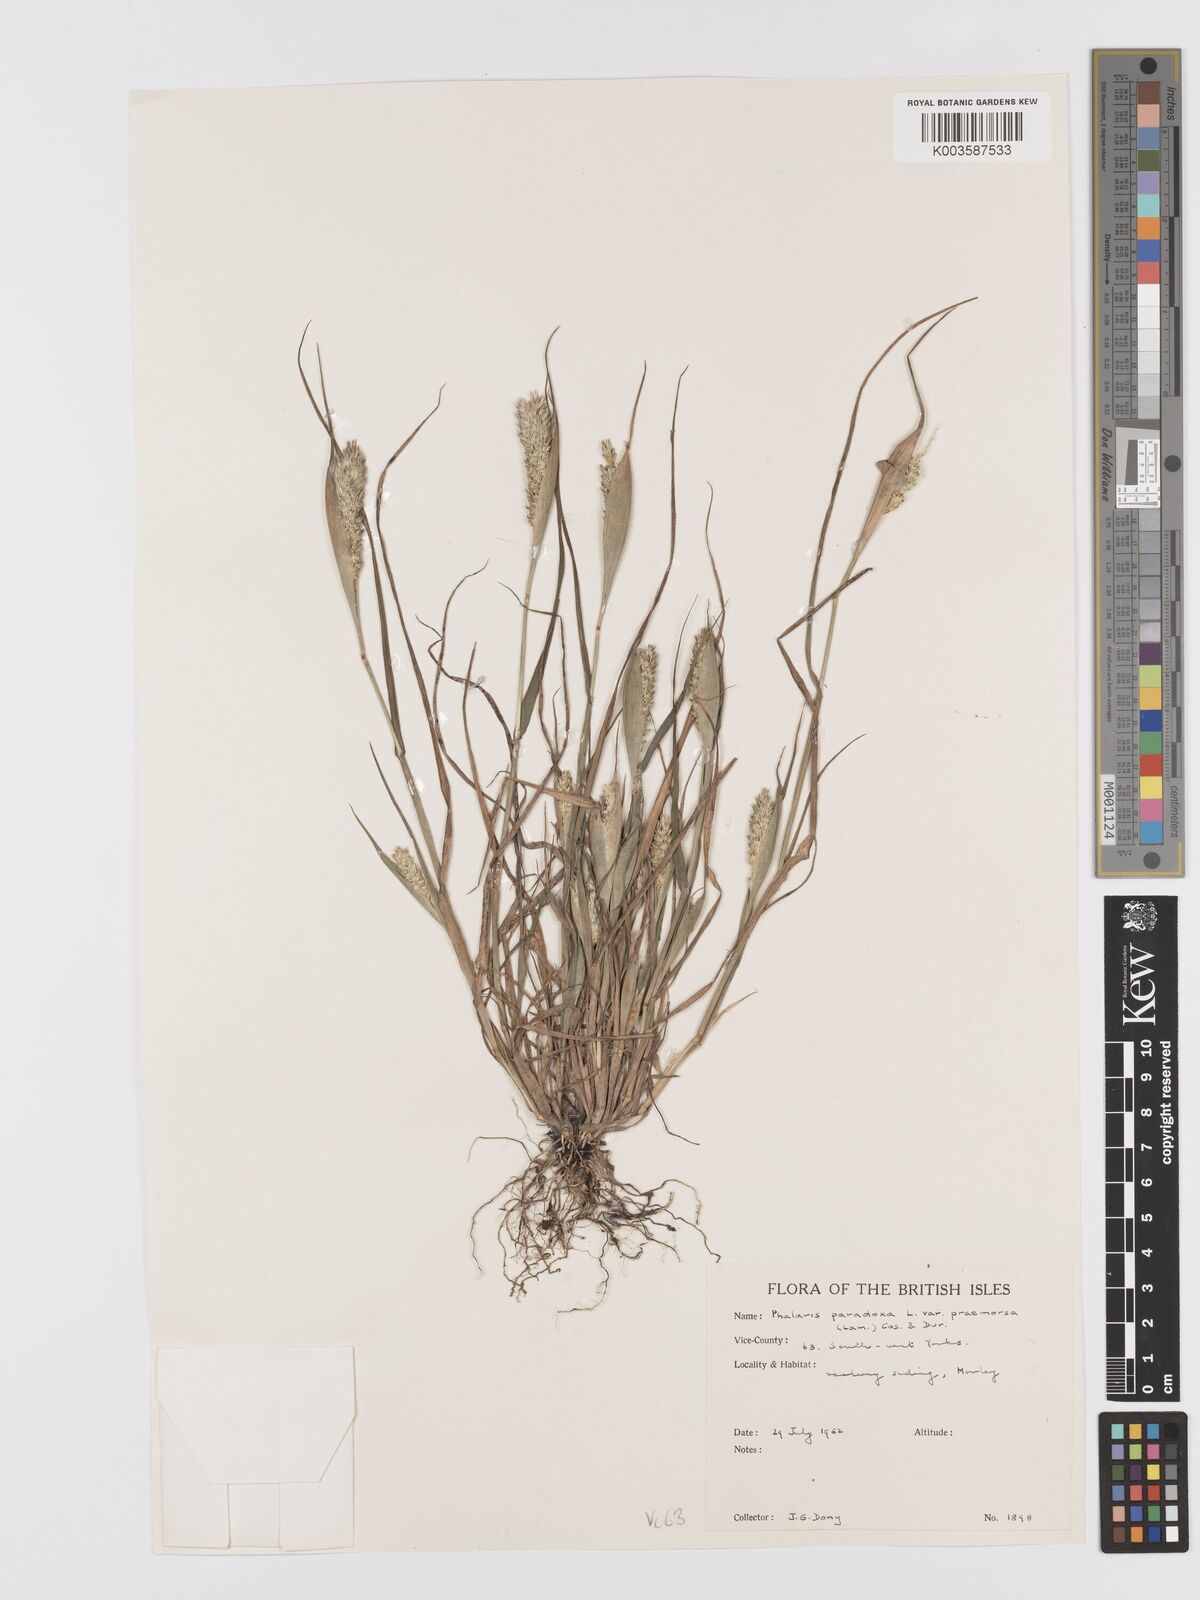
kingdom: Plantae
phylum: Tracheophyta
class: Liliopsida
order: Poales
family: Poaceae
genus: Phalaris
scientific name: Phalaris paradoxa
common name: Awned canary-grass
